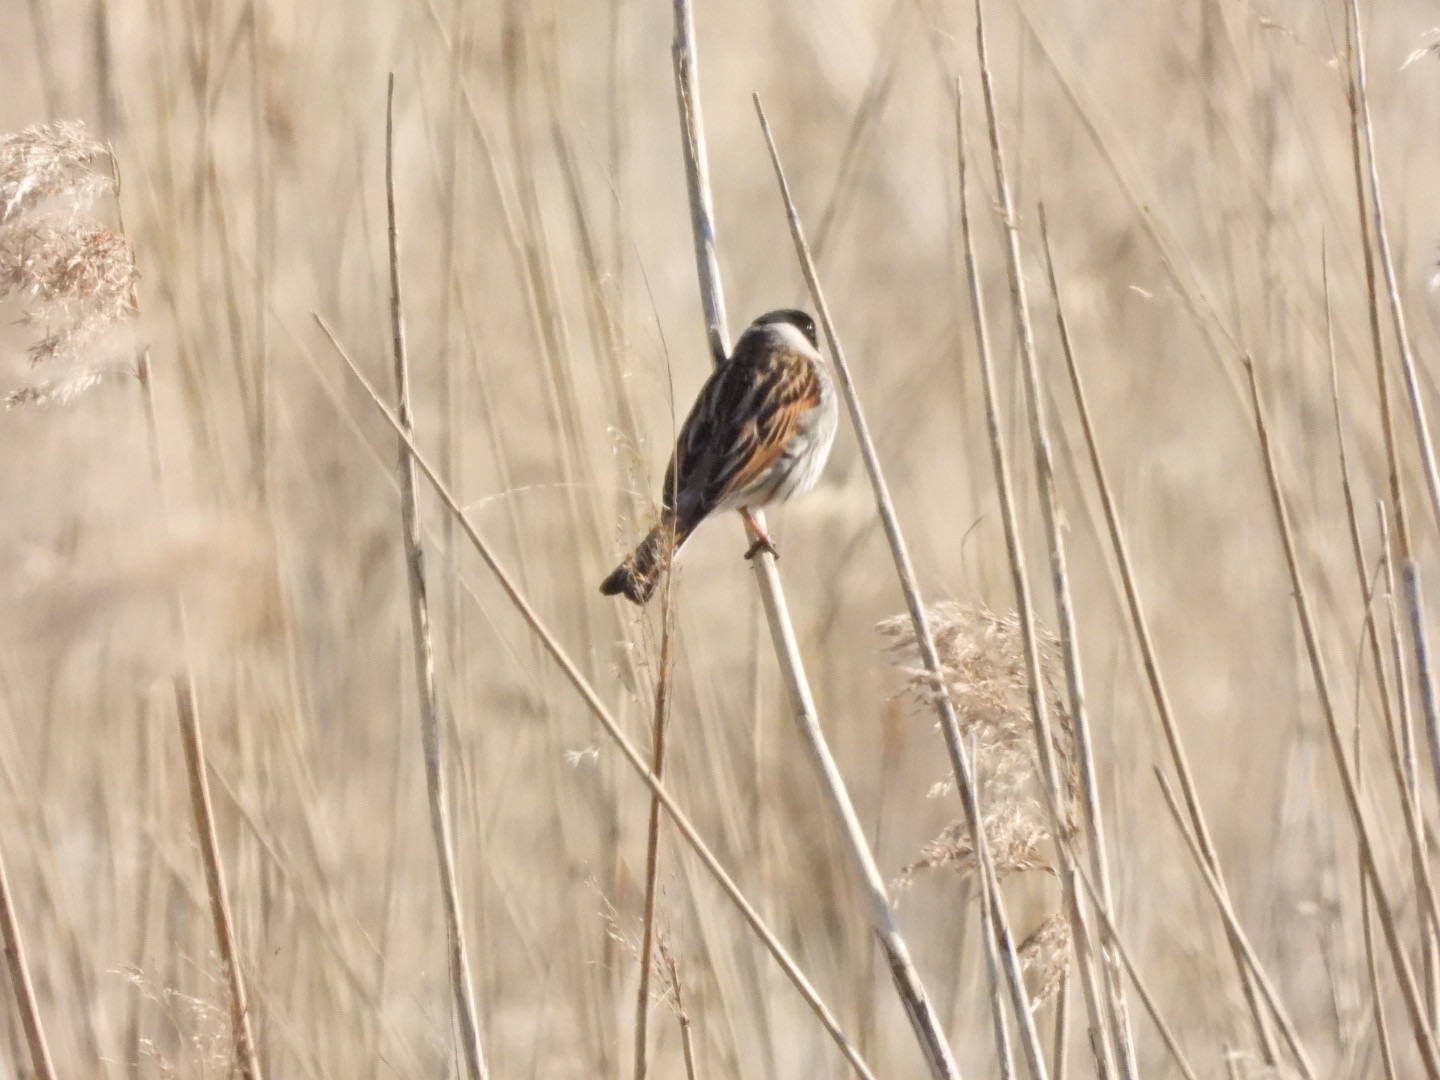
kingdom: Animalia
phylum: Chordata
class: Aves
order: Passeriformes
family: Emberizidae
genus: Emberiza
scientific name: Emberiza schoeniclus
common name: Rørspurv
